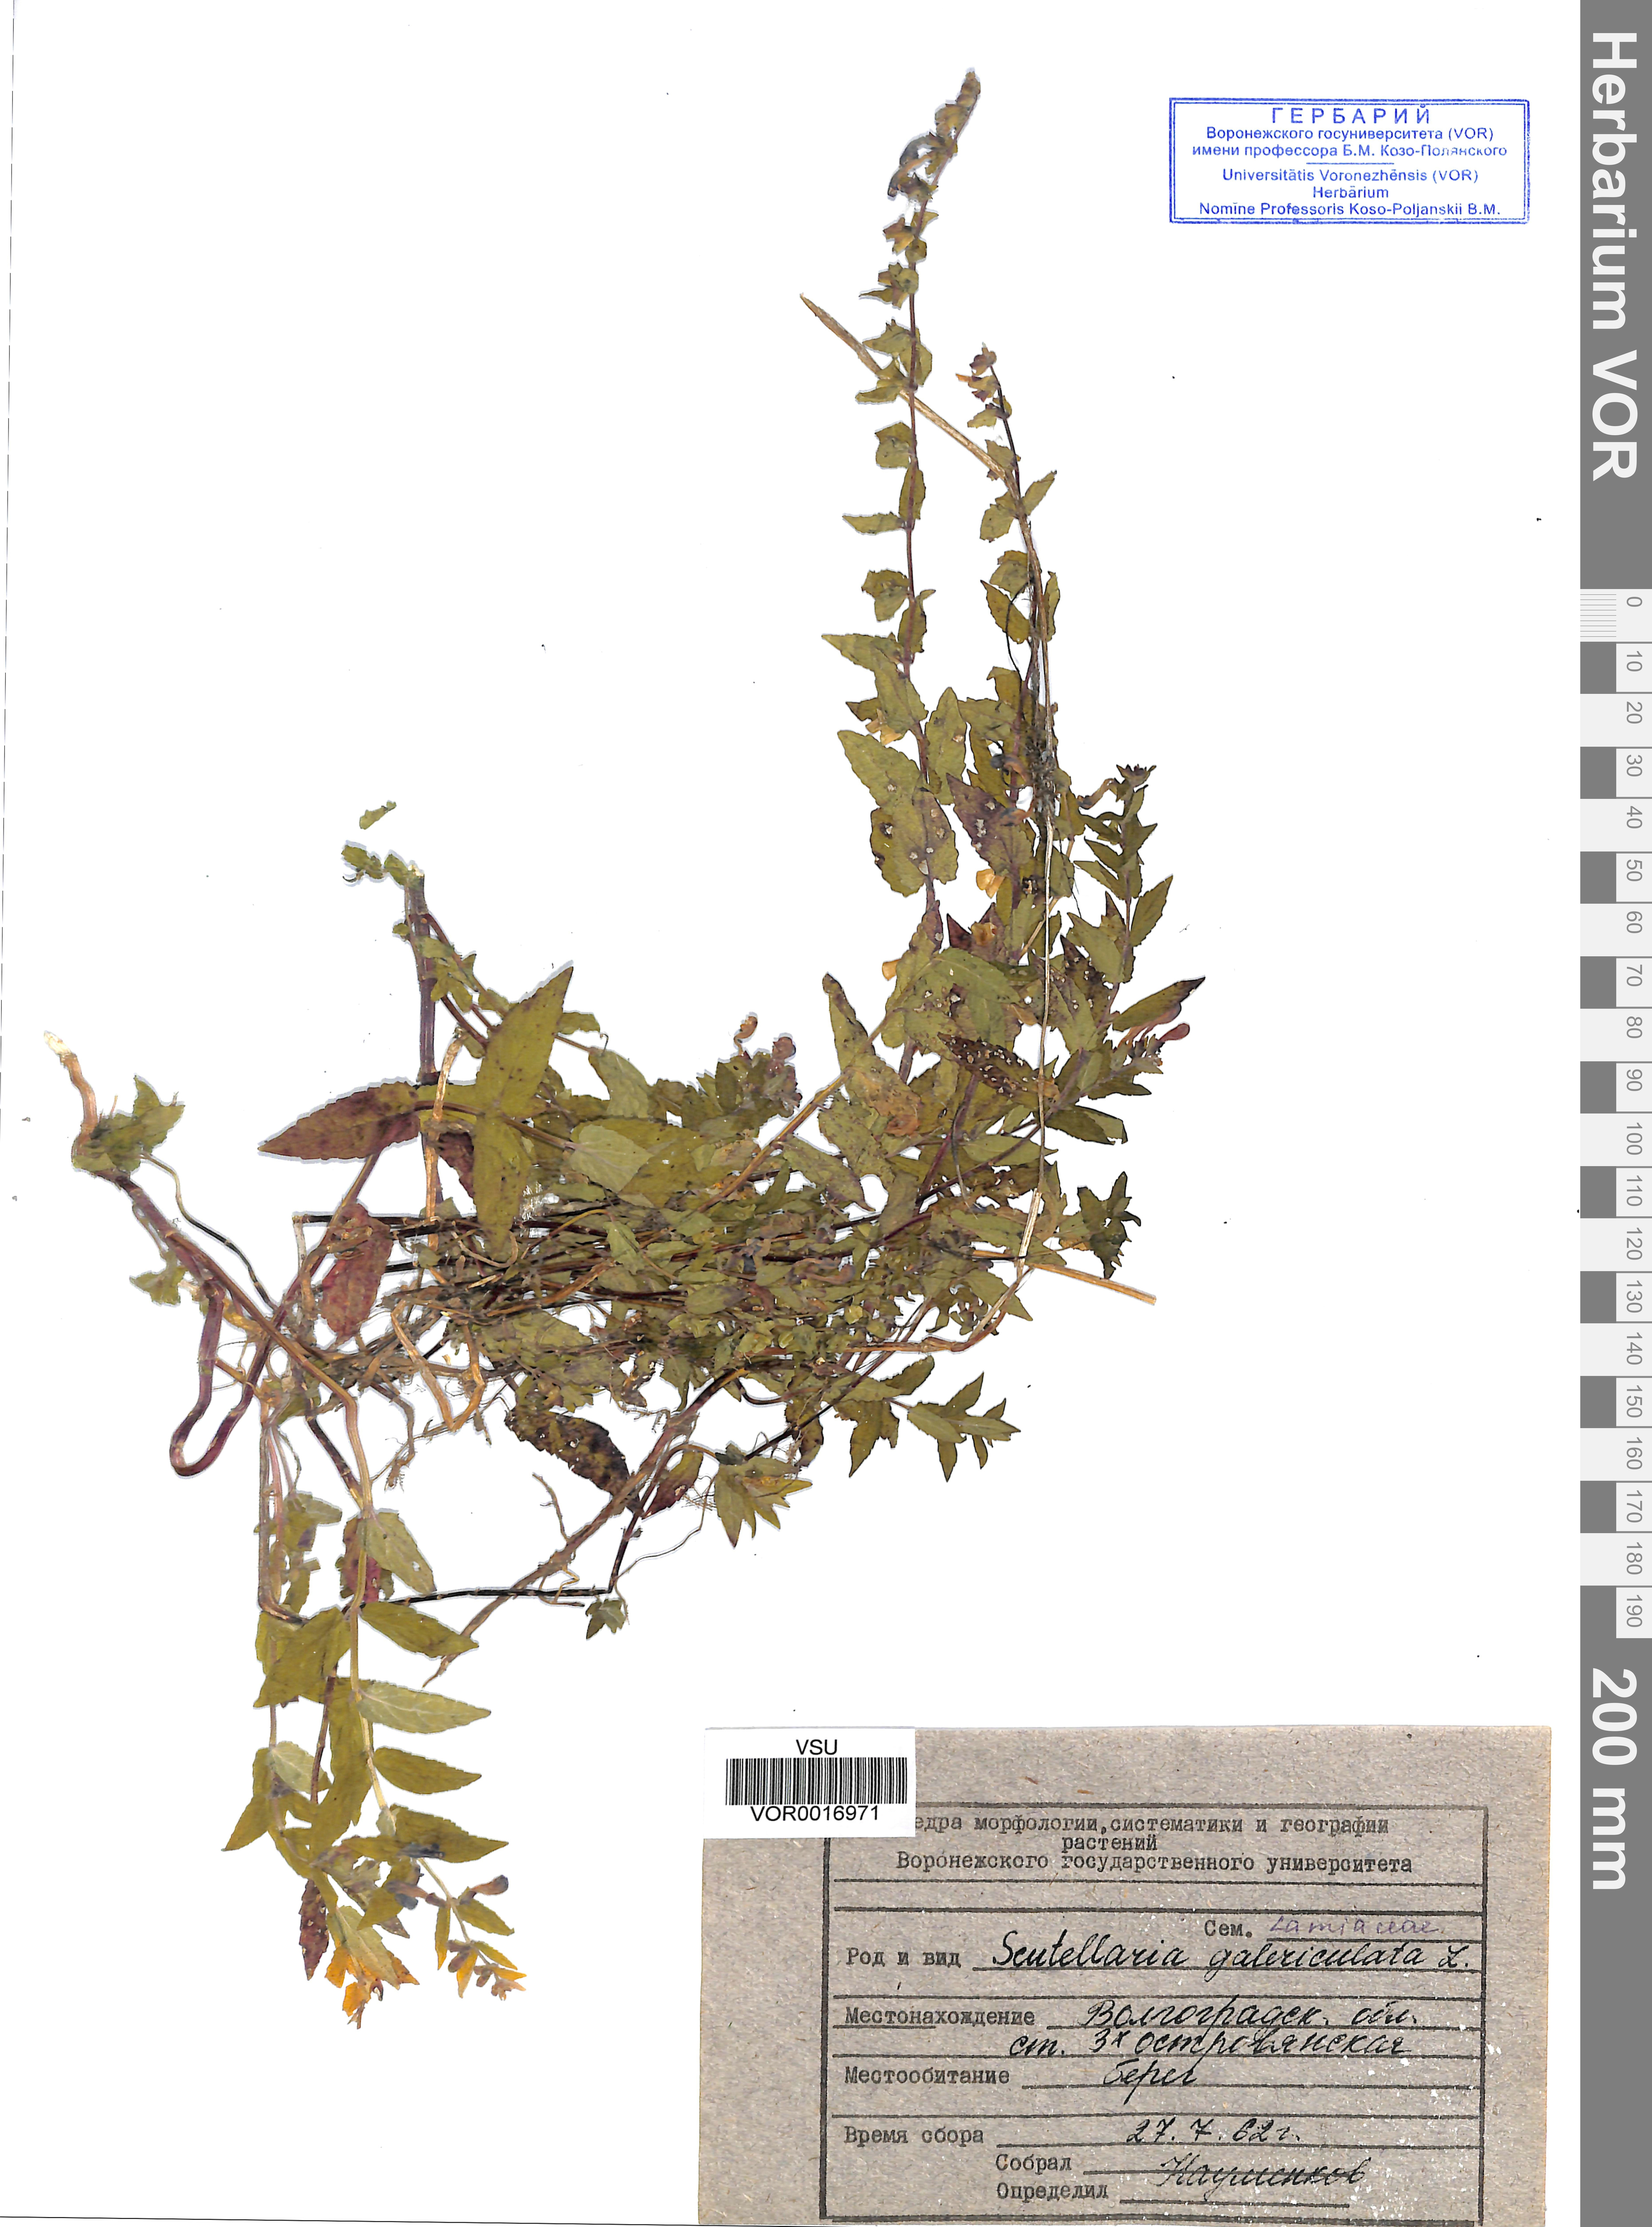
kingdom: Plantae
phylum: Tracheophyta
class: Magnoliopsida
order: Lamiales
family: Lamiaceae
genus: Scutellaria
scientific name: Scutellaria galericulata
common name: Skullcap
